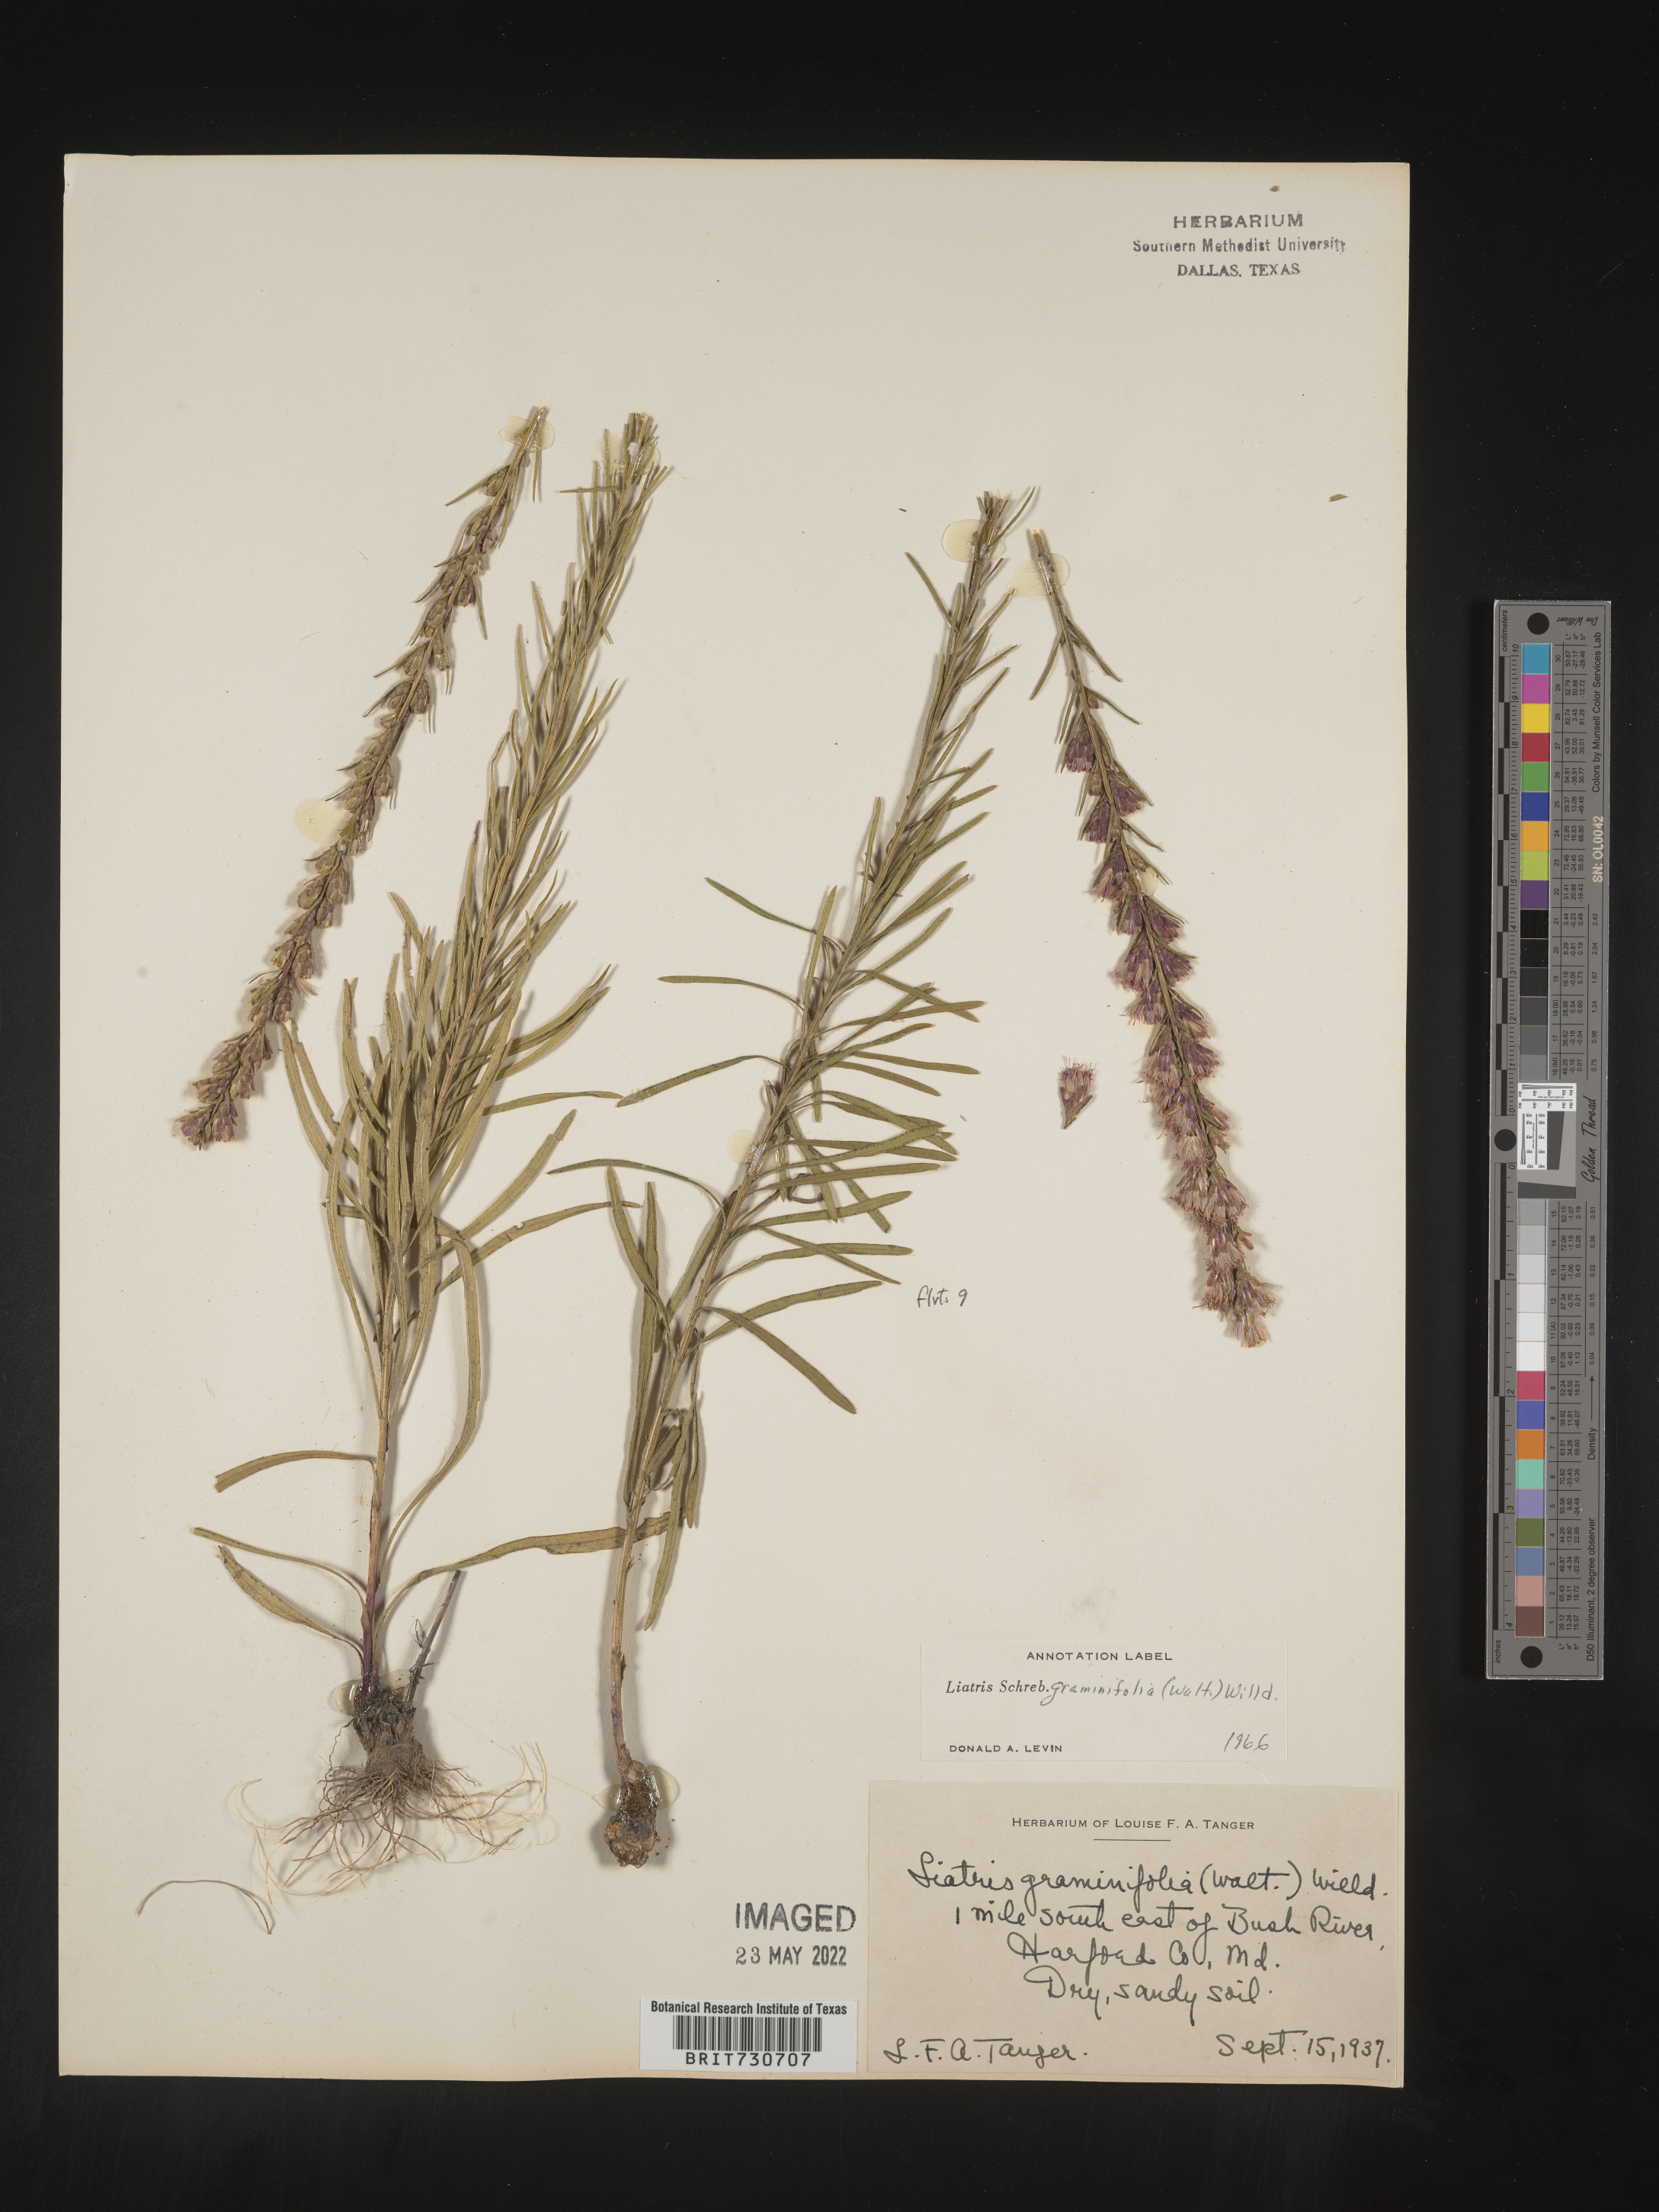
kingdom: Plantae
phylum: Tracheophyta
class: Magnoliopsida
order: Asterales
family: Asteraceae
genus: Liatris
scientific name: Liatris pilosa
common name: Grass-leaf gayfeather
